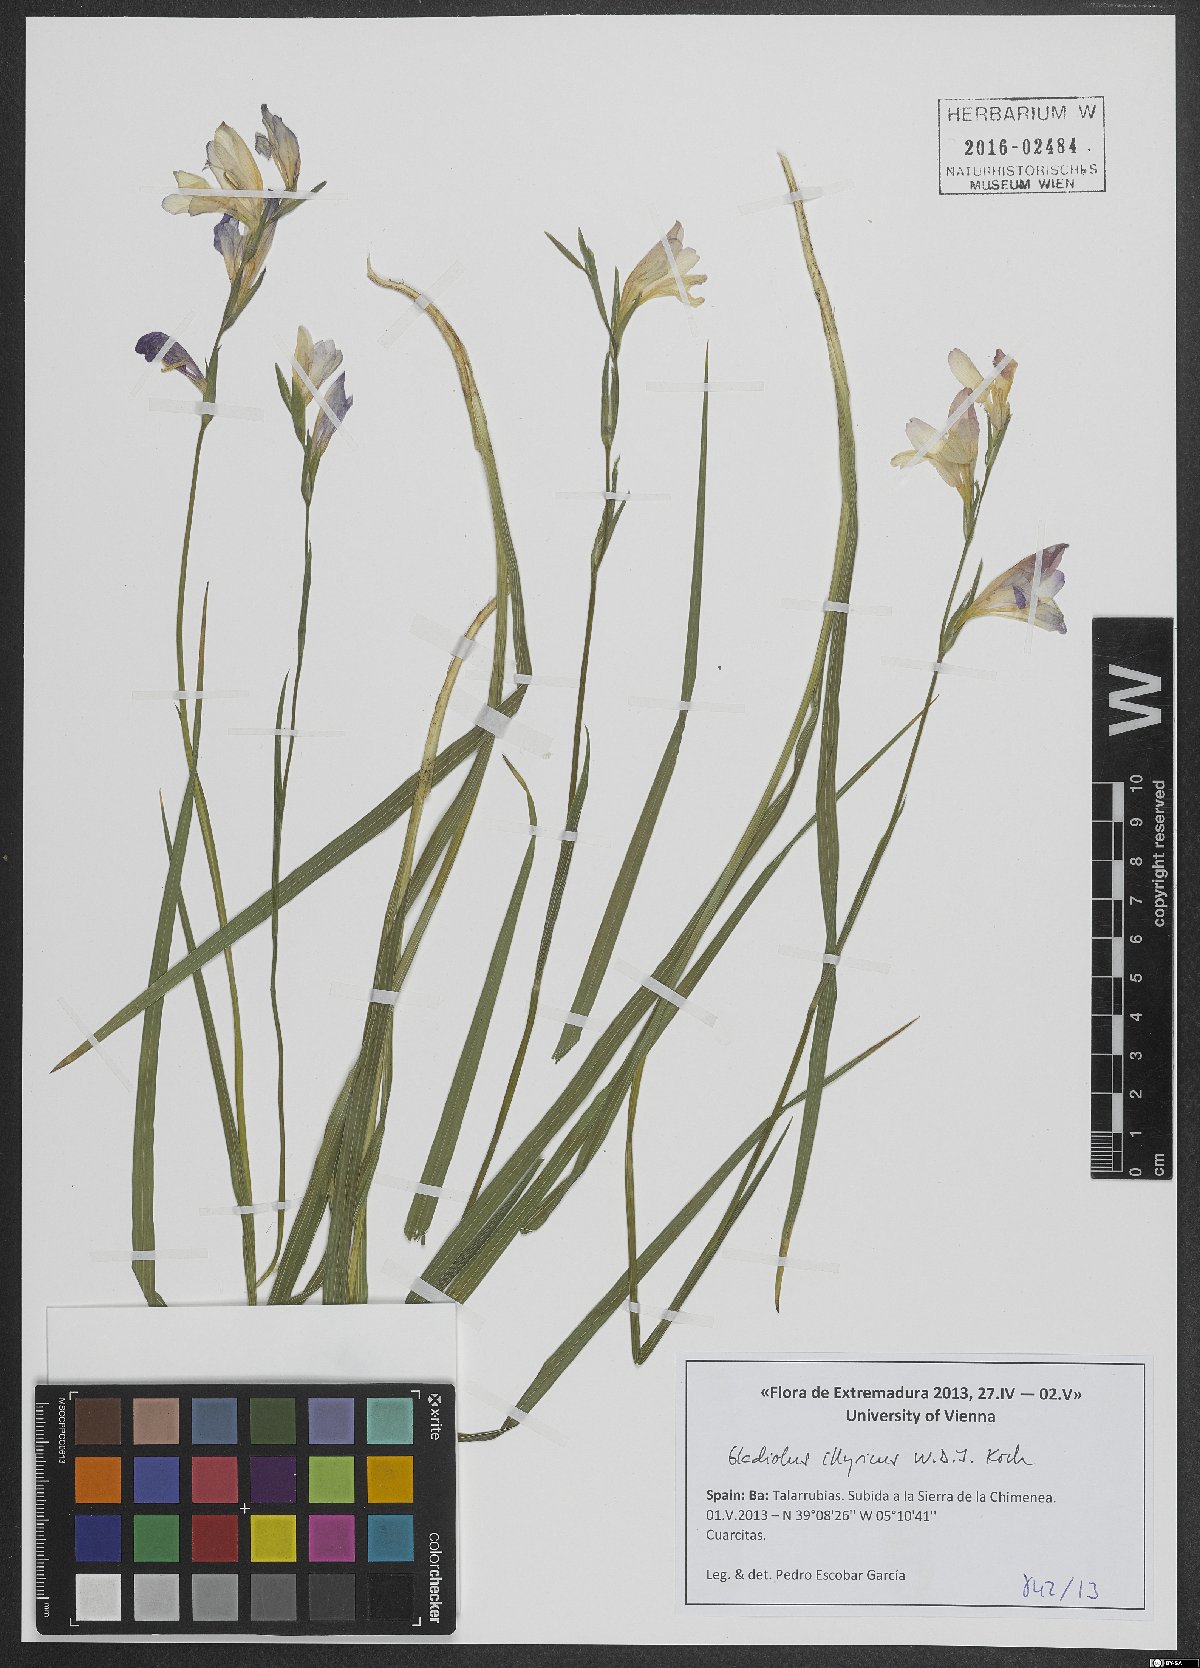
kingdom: Plantae
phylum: Tracheophyta
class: Liliopsida
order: Asparagales
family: Iridaceae
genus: Gladiolus
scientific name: Gladiolus illyricus
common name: Wild gladiolus
